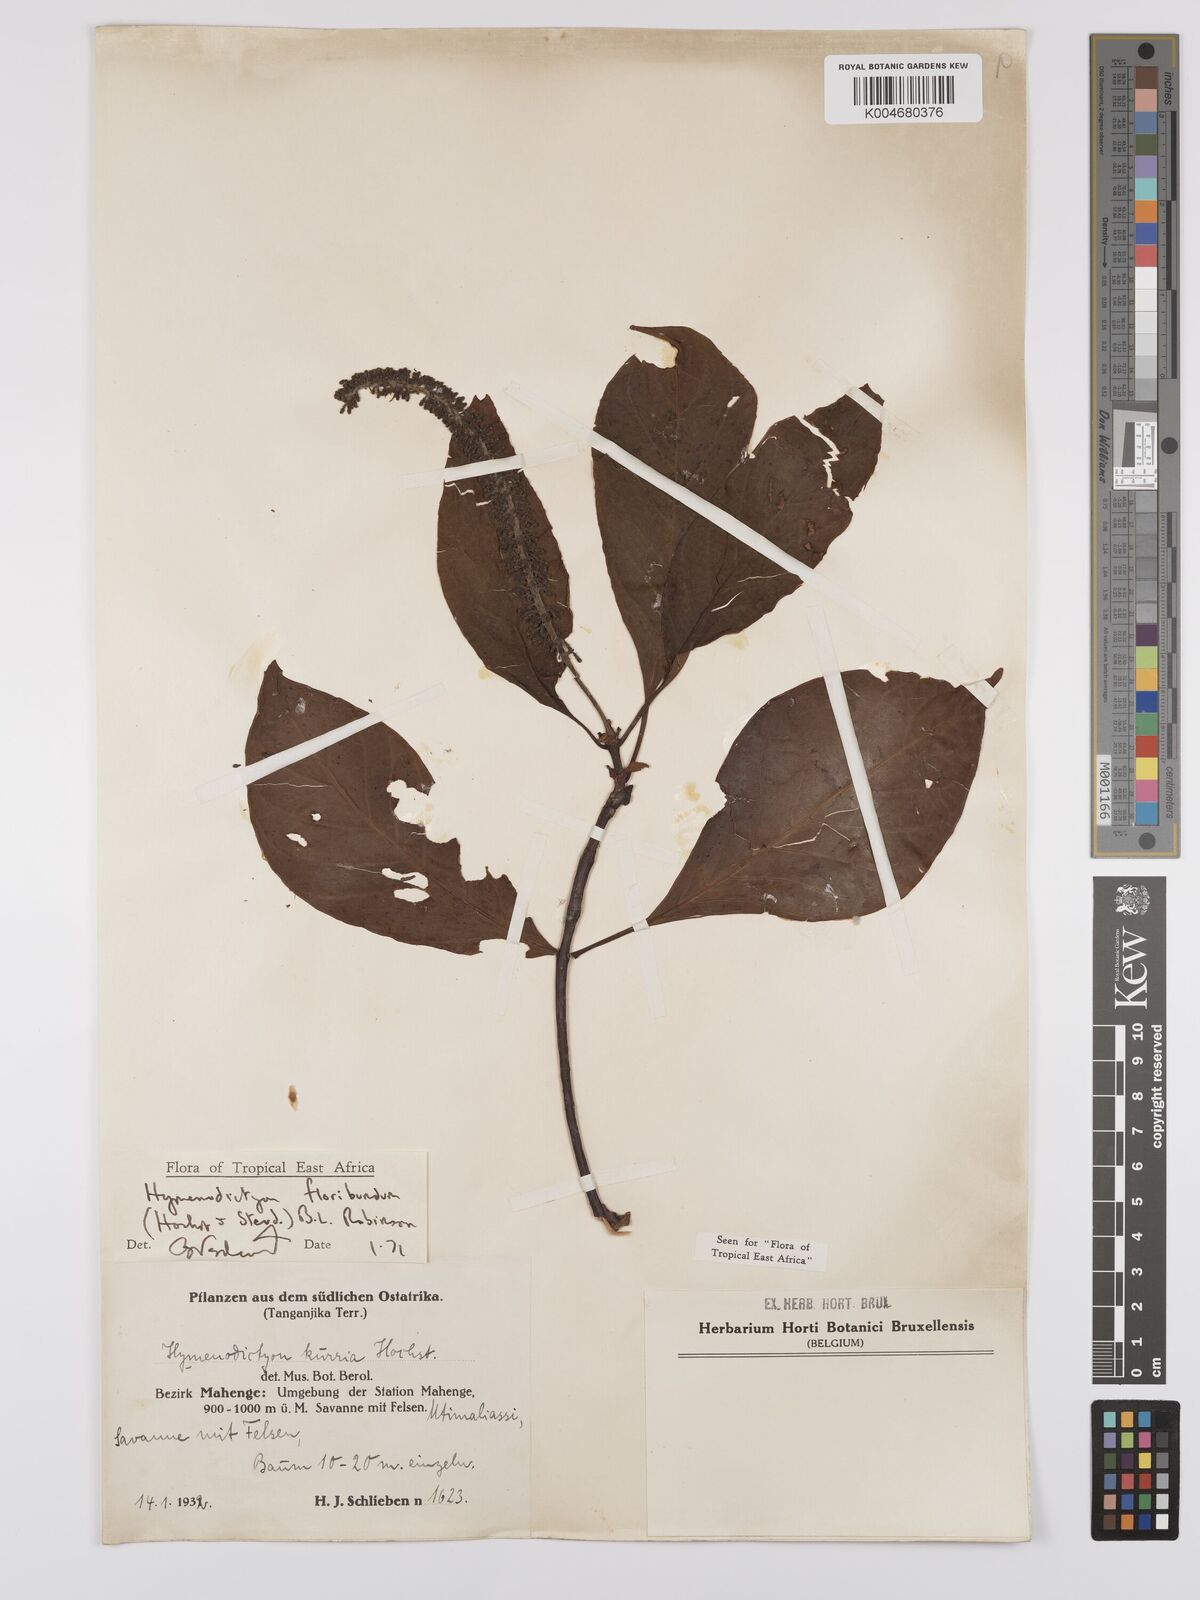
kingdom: Plantae
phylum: Tracheophyta
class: Magnoliopsida
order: Gentianales
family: Rubiaceae
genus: Hymenodictyon
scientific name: Hymenodictyon floribundum
